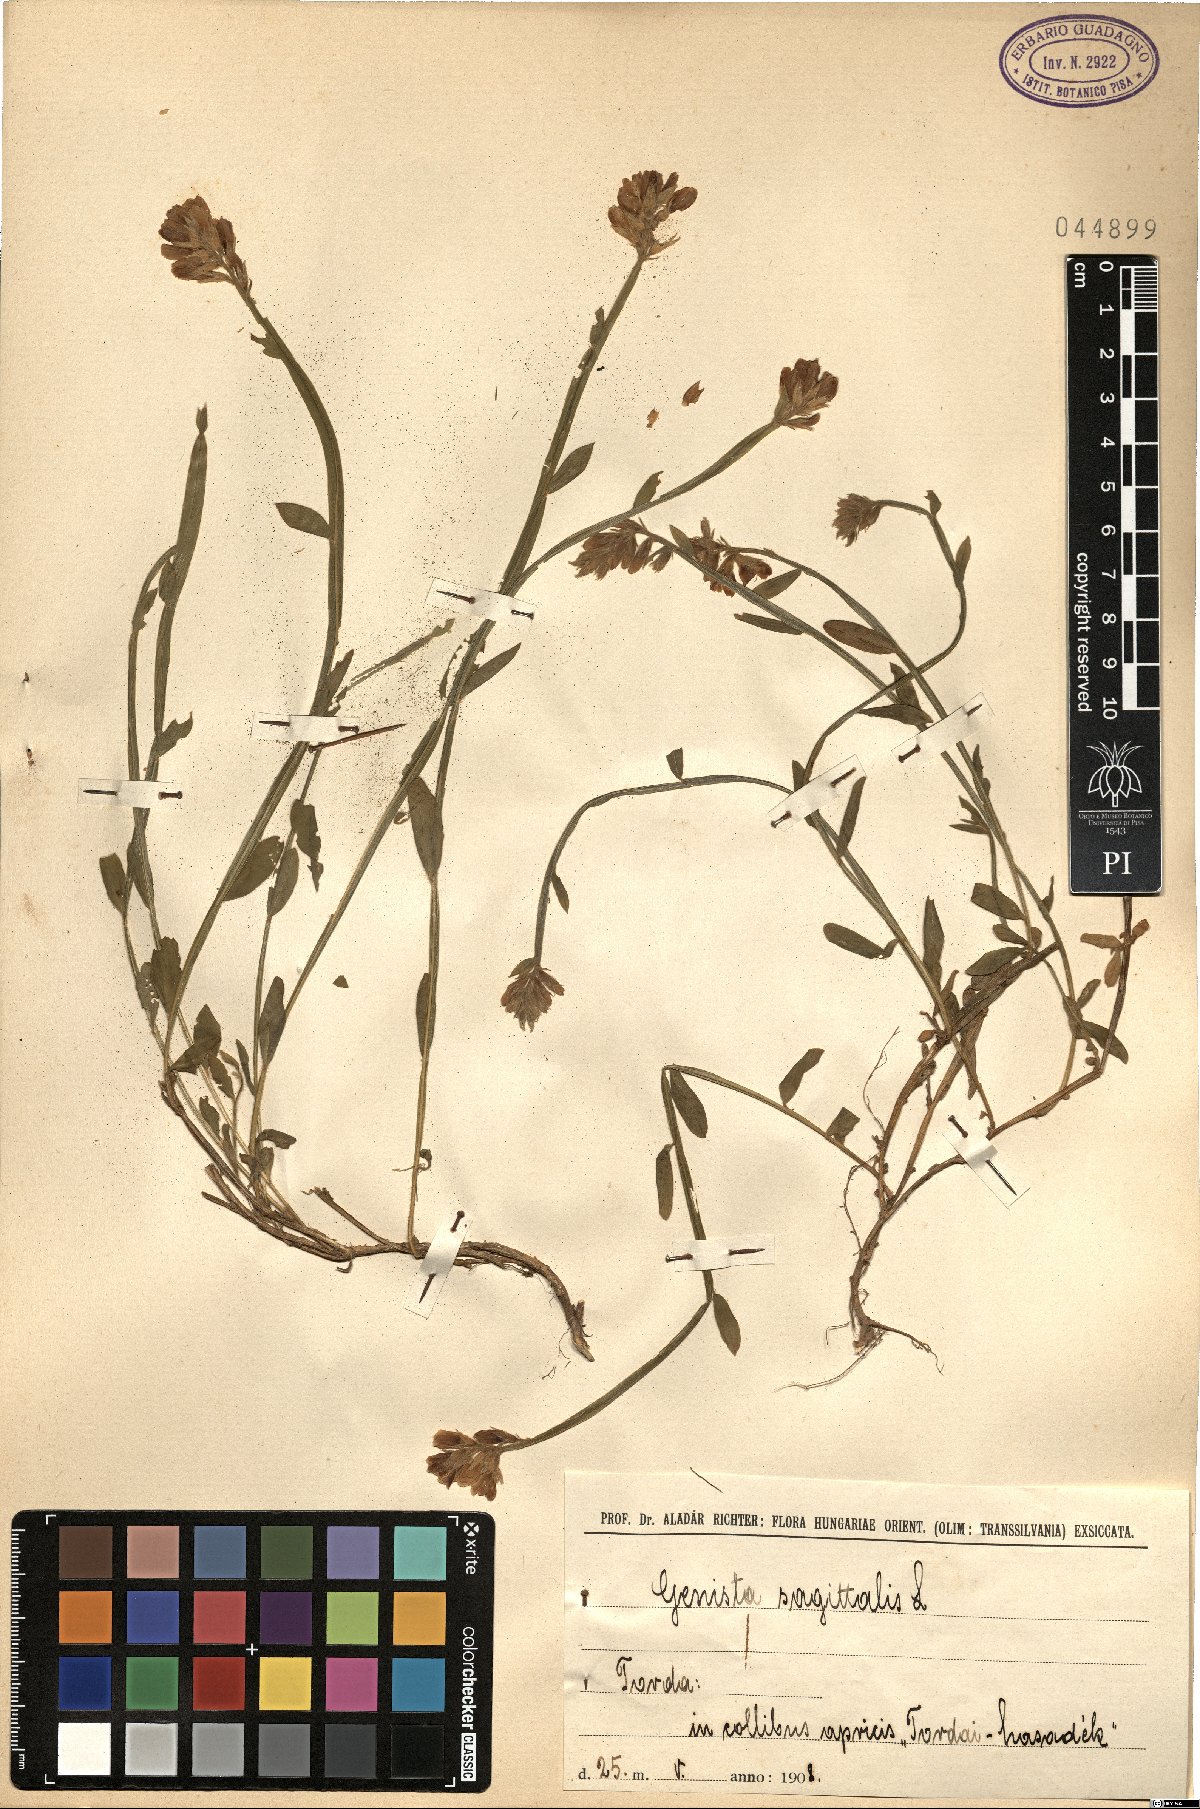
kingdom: Plantae
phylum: Tracheophyta
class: Magnoliopsida
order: Fabales
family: Fabaceae
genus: Genista
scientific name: Genista sagittalis
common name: Winged greenweed
